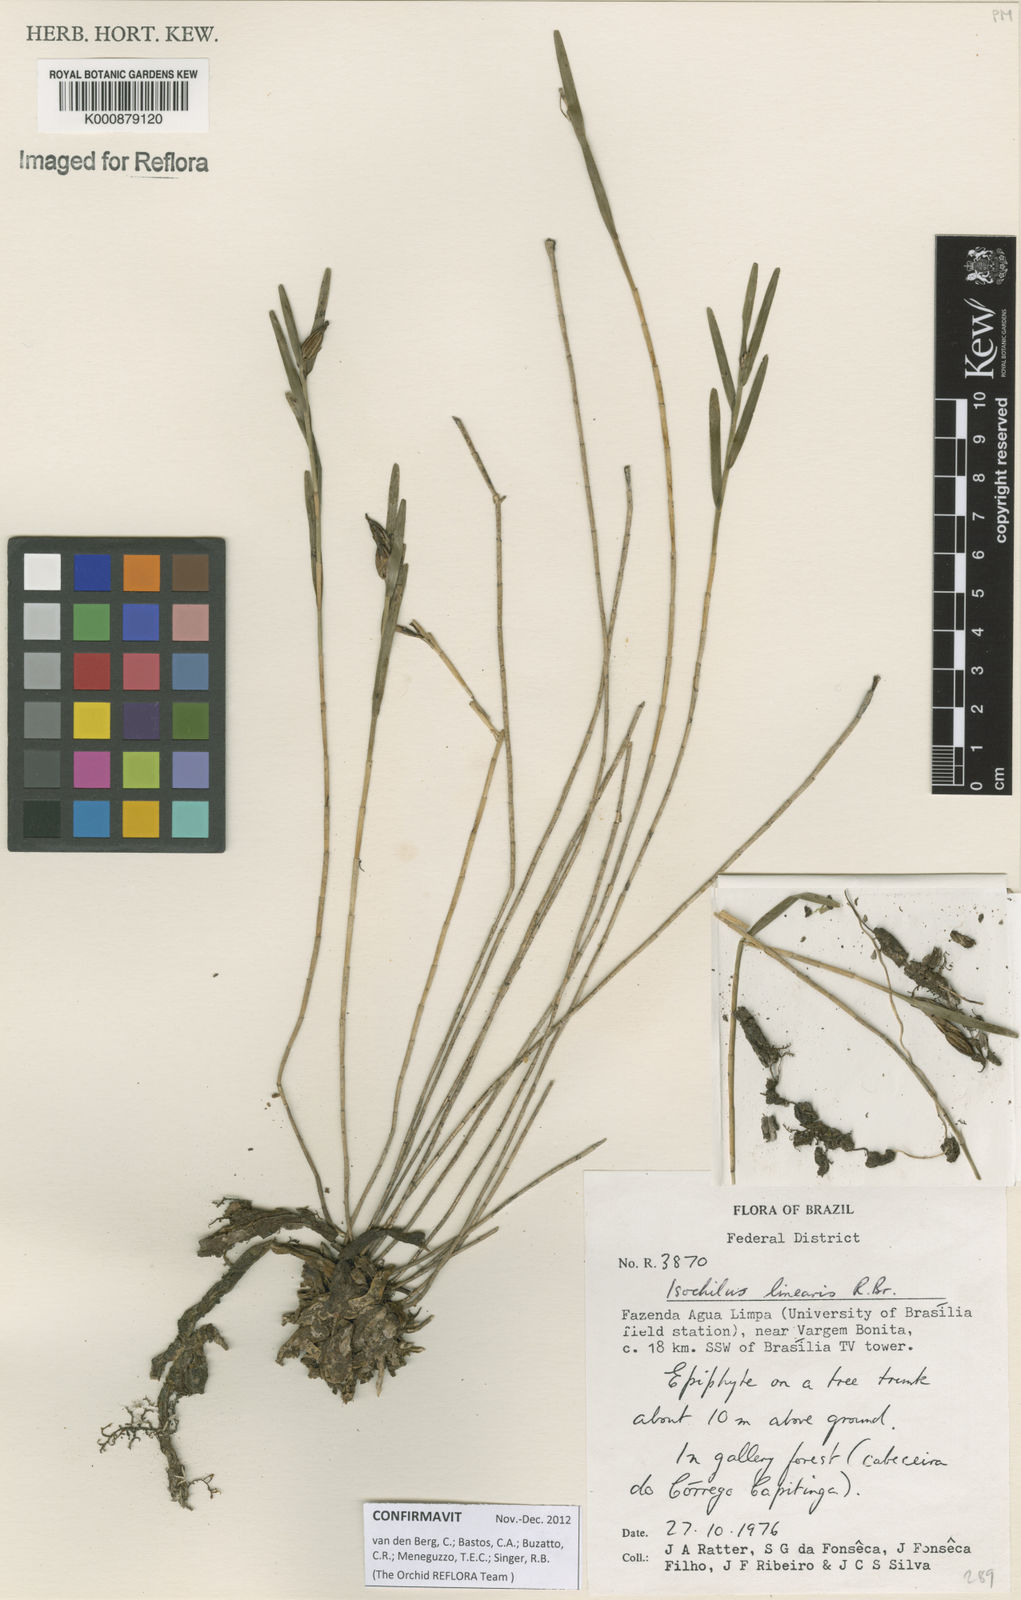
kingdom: Plantae
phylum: Tracheophyta
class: Liliopsida
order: Asparagales
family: Orchidaceae
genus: Isochilus
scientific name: Isochilus linearis
